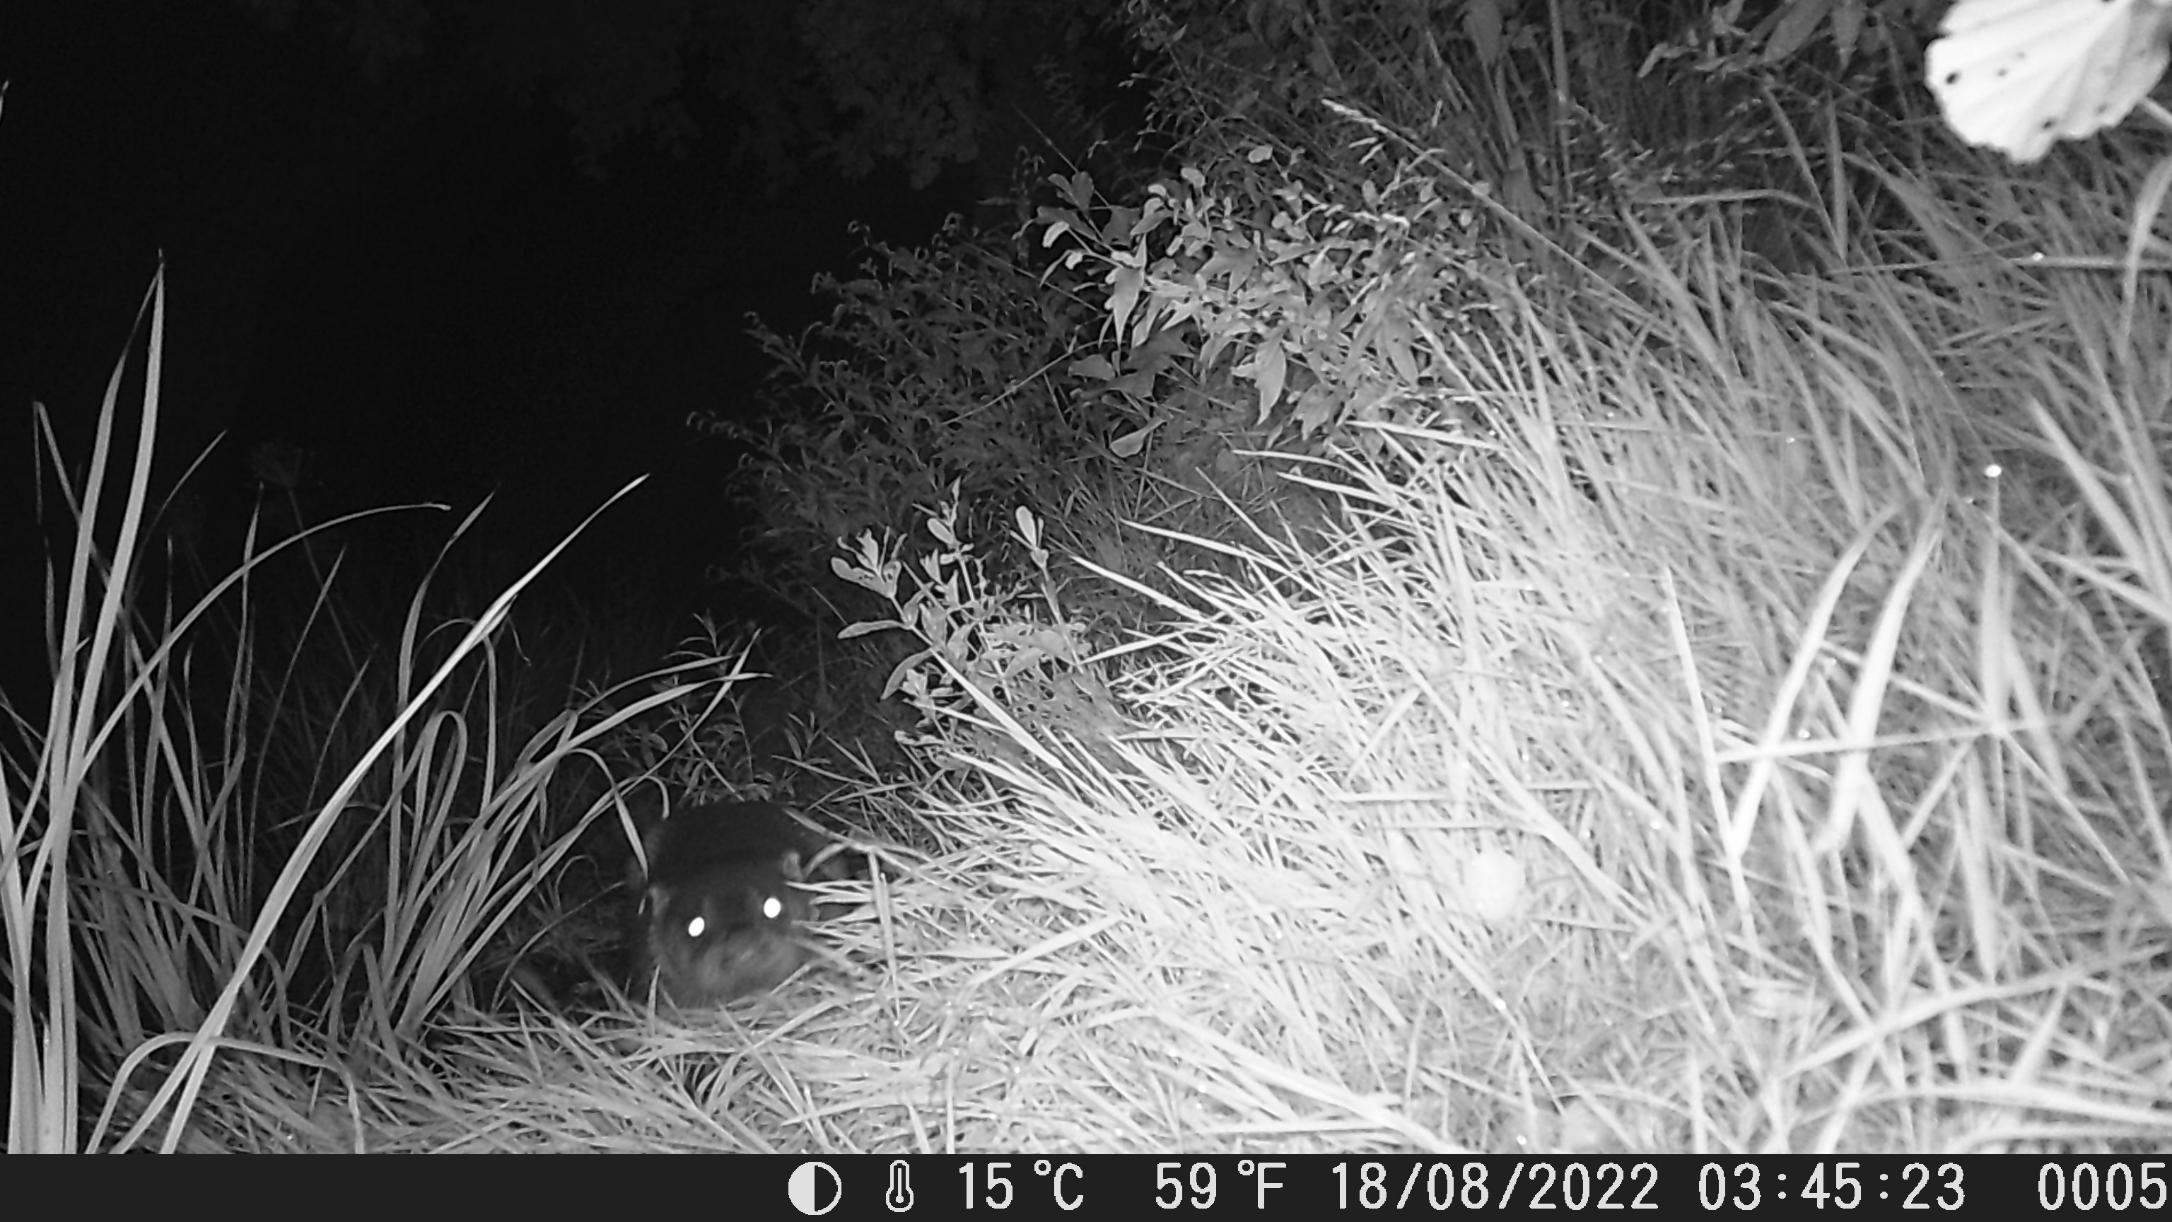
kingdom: Animalia
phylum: Chordata
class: Mammalia
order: Carnivora
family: Mustelidae
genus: Lutra
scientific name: Lutra lutra
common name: Odder
